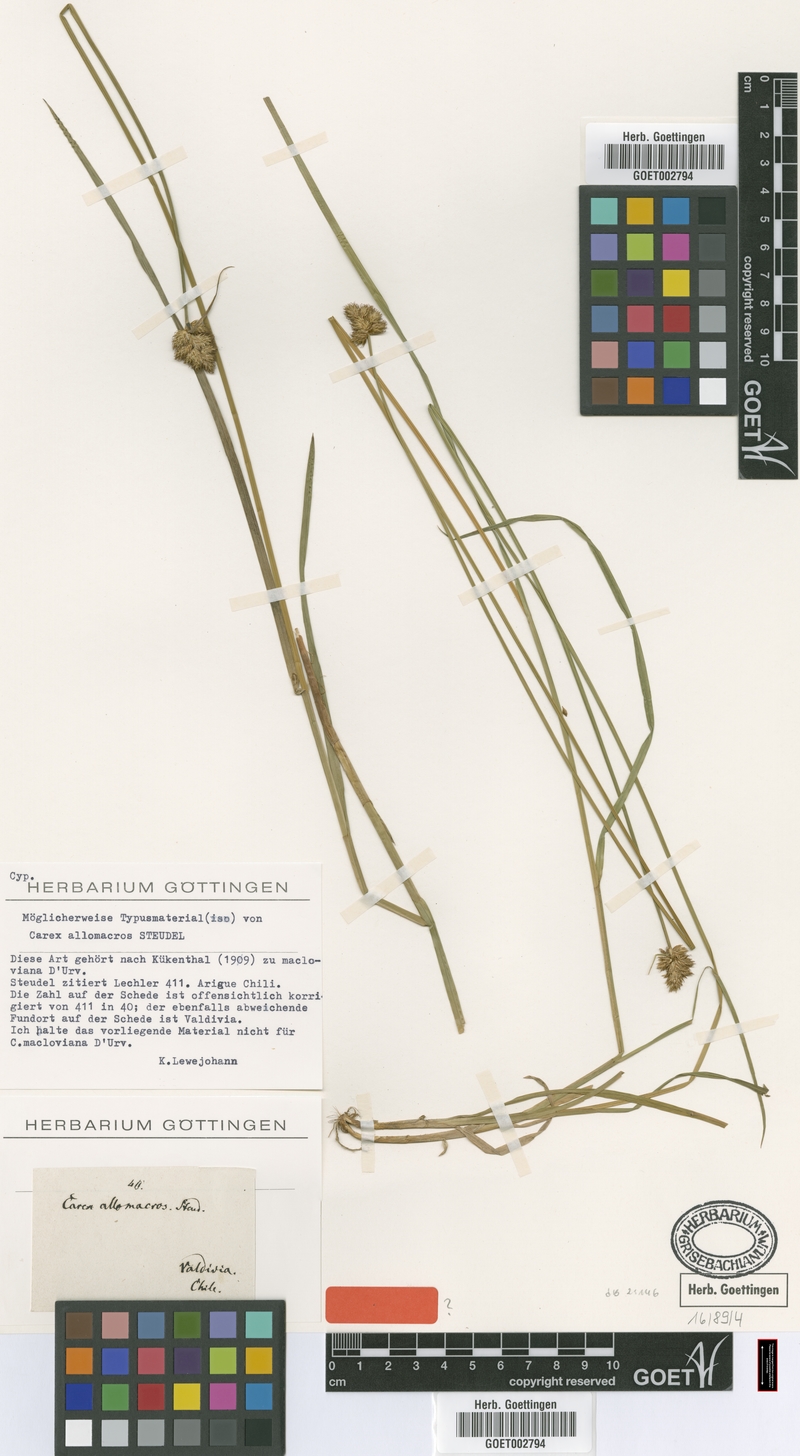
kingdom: Plantae
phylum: Tracheophyta
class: Liliopsida
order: Poales
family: Cyperaceae
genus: Carex
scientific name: Carex macloviana
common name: Falkland island sedge
